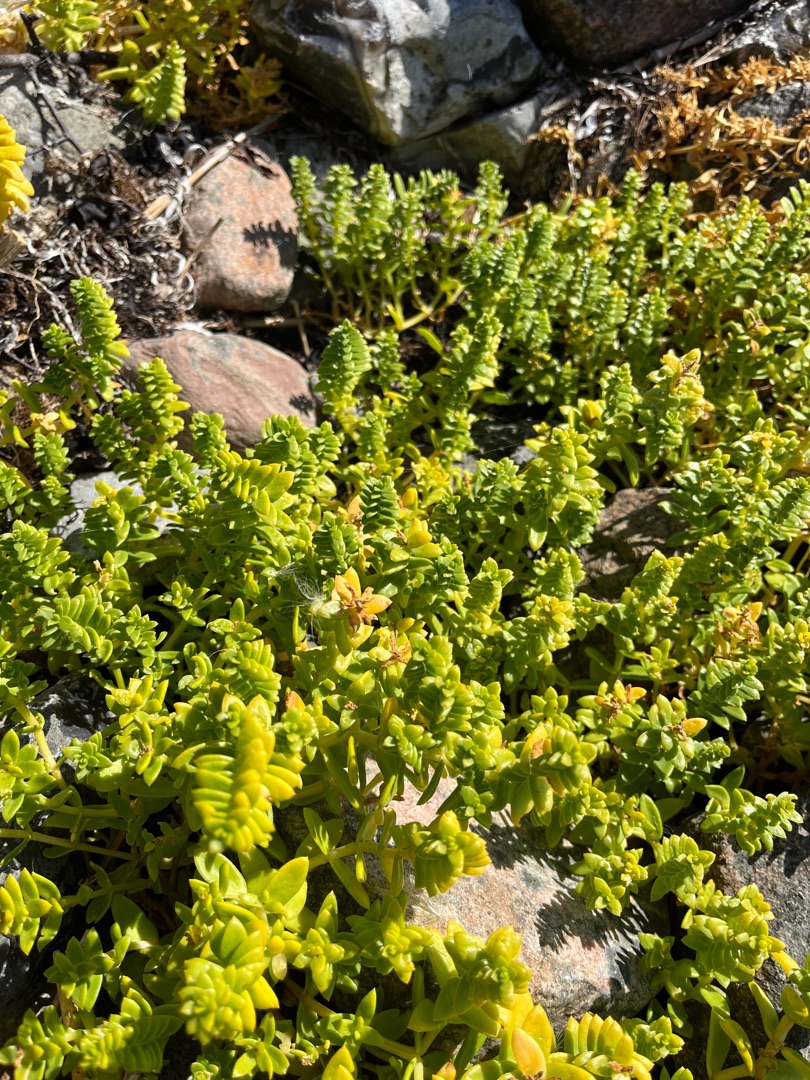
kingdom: Plantae
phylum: Tracheophyta
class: Magnoliopsida
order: Caryophyllales
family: Caryophyllaceae
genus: Honckenya
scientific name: Honckenya peploides
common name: Strandarve
